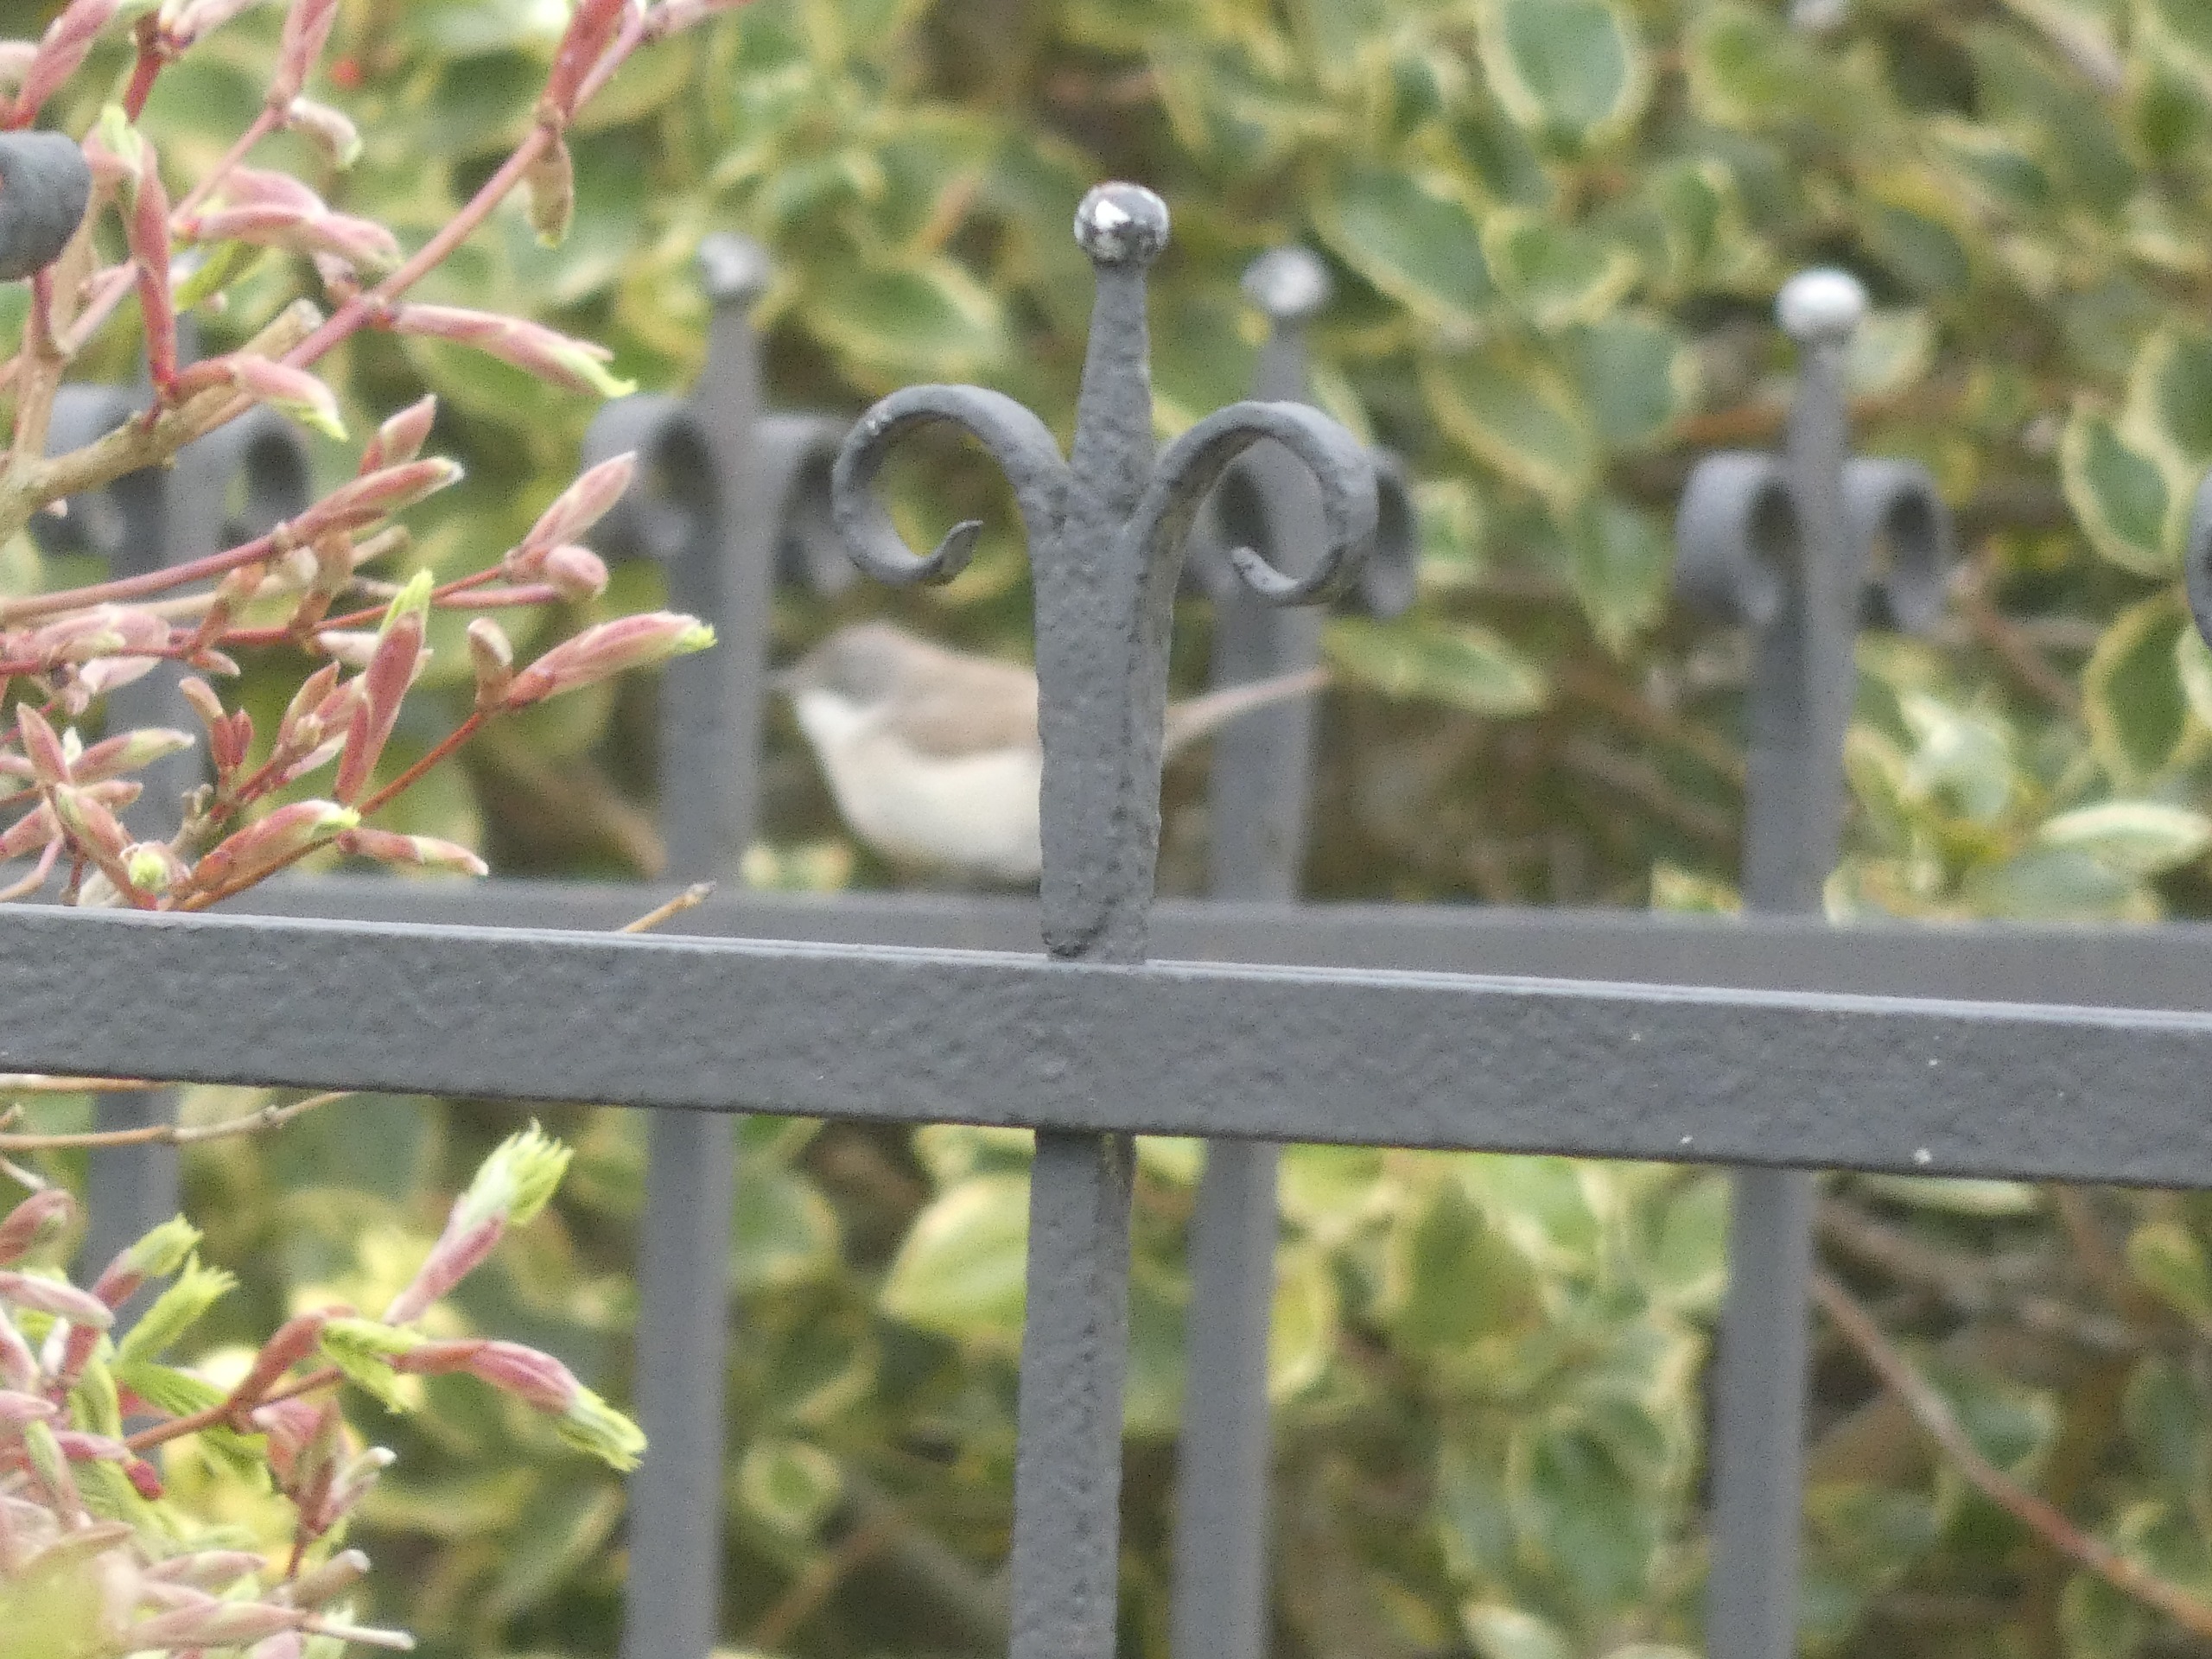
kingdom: Animalia
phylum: Chordata
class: Aves
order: Passeriformes
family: Sylviidae
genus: Sylvia
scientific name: Sylvia curruca
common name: Gærdesanger
